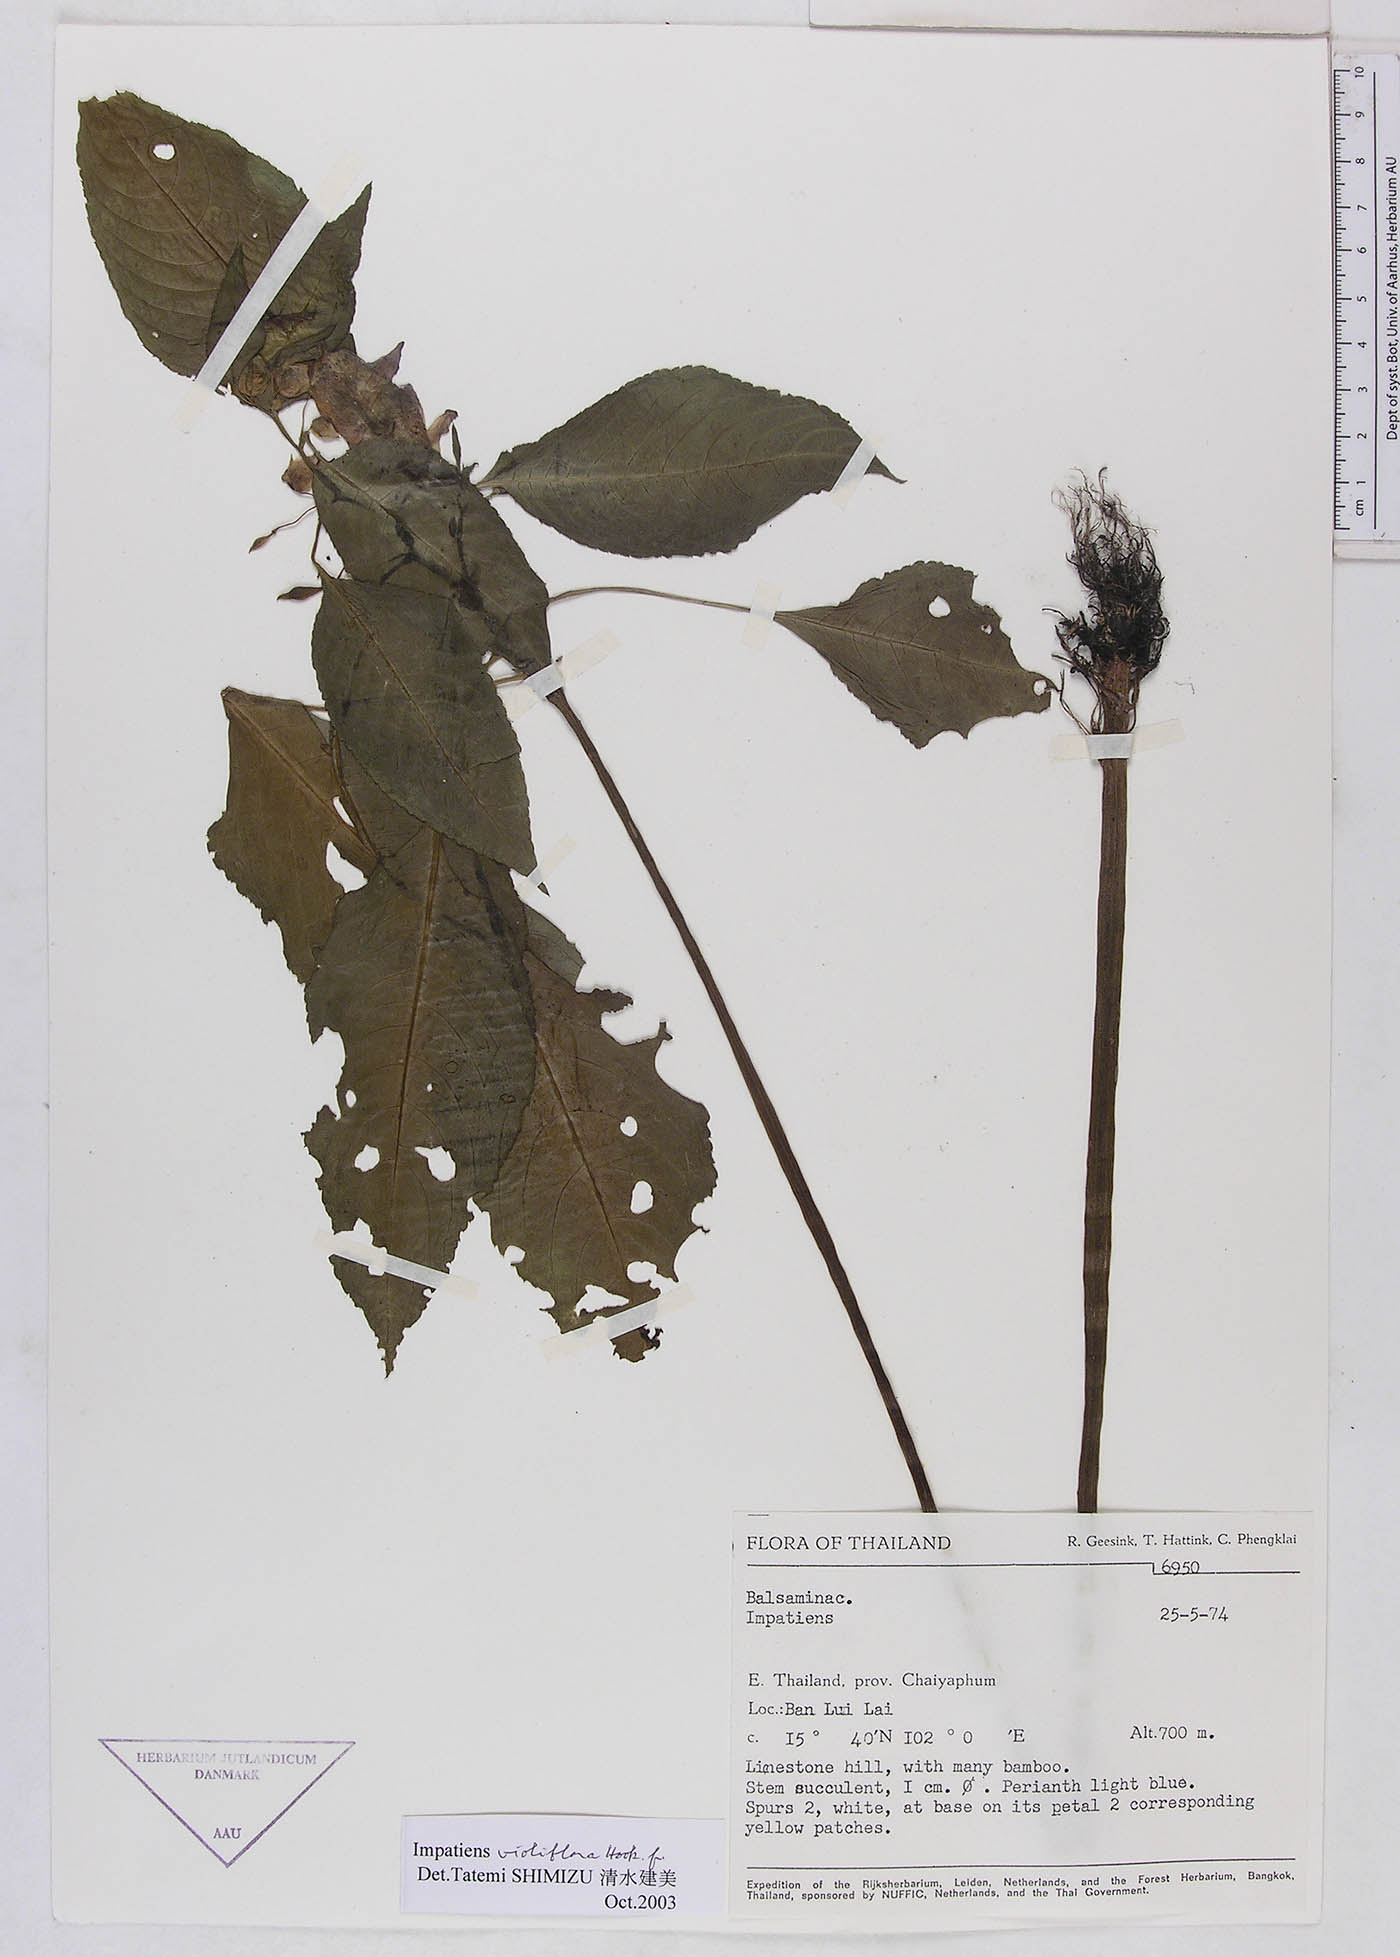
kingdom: Plantae
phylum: Tracheophyta
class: Magnoliopsida
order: Ericales
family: Balsaminaceae
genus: Impatiens
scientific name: Impatiens harmandii
